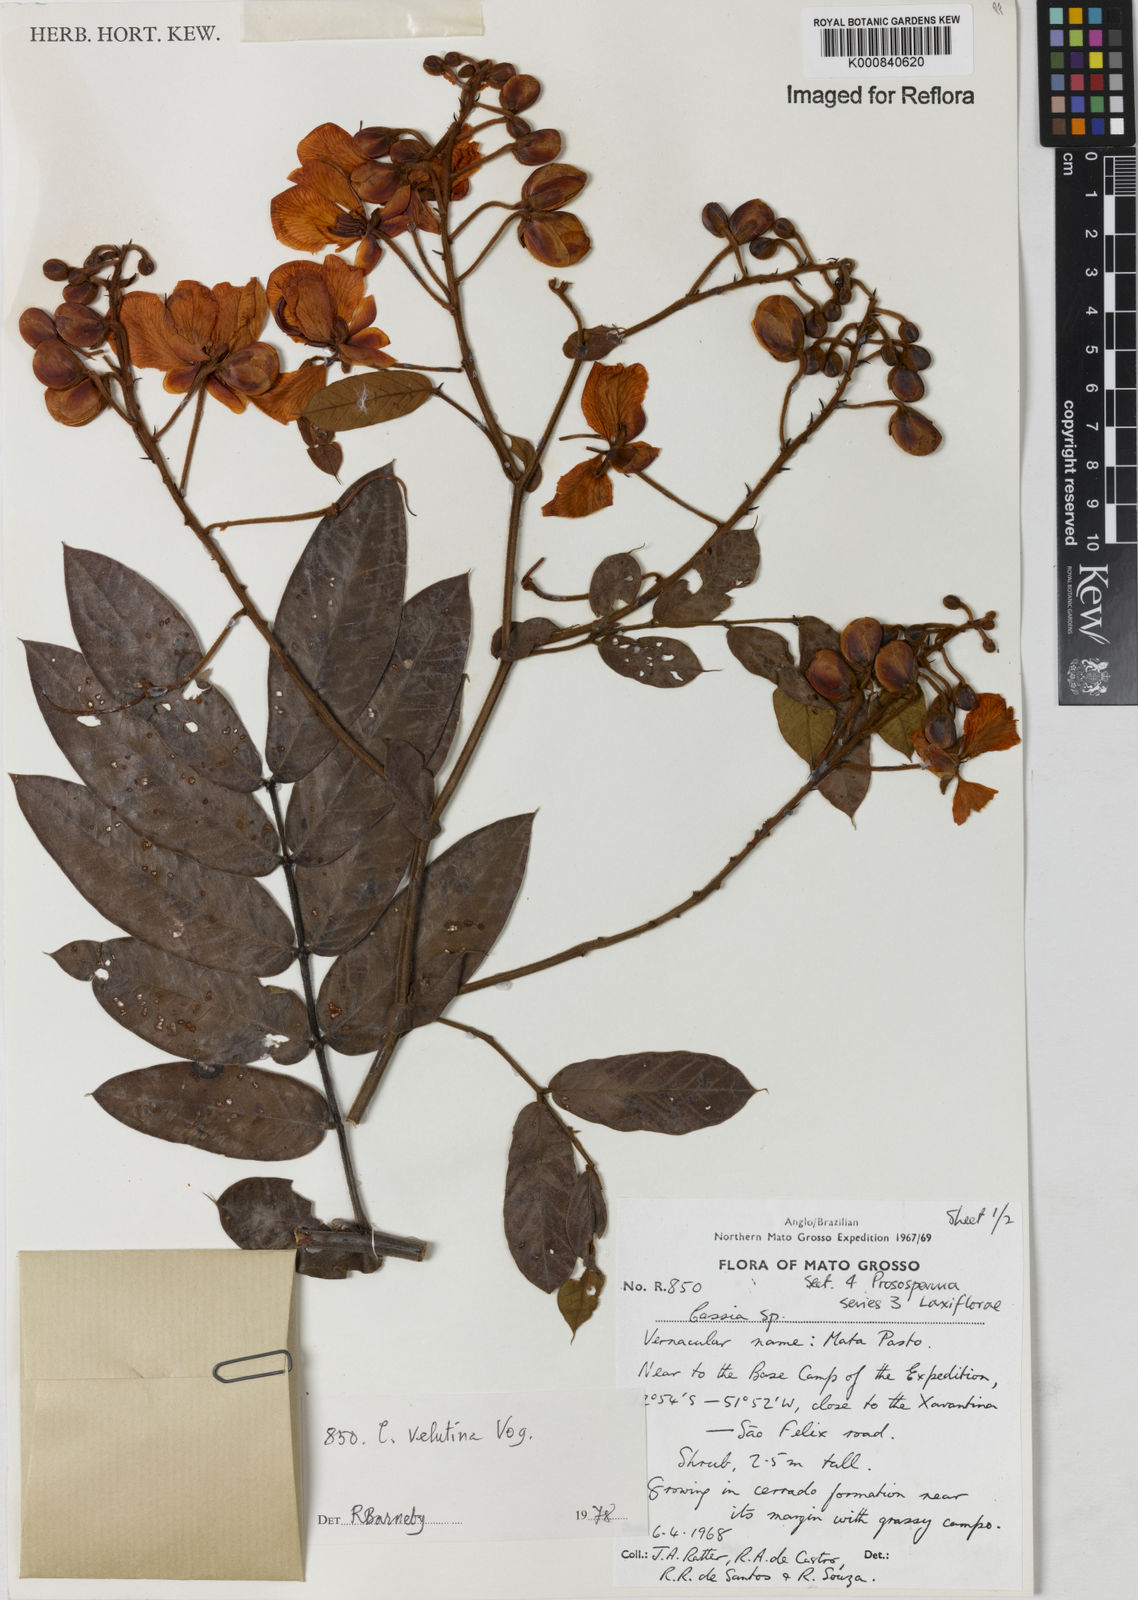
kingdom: Plantae
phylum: Tracheophyta
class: Magnoliopsida
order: Fabales
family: Fabaceae
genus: Senna
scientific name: Senna velutina
